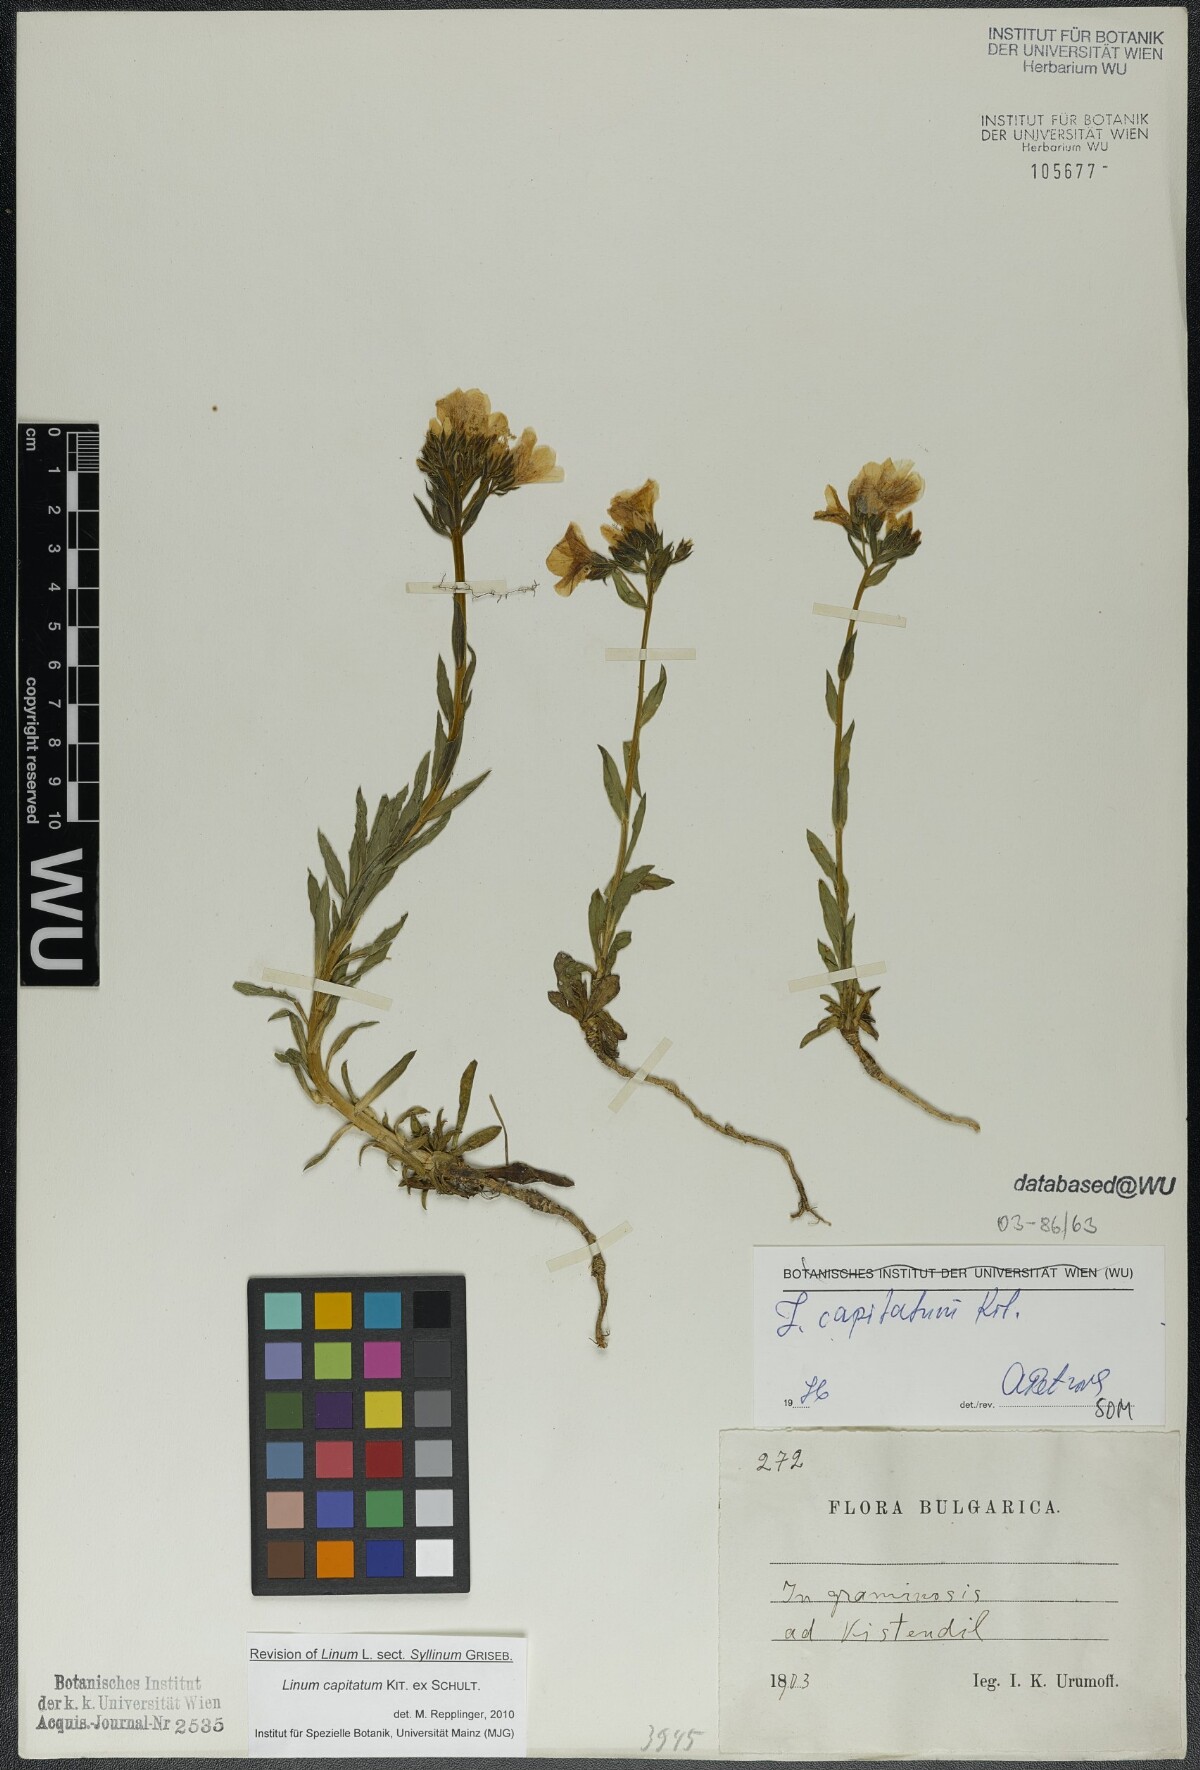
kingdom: Plantae
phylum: Tracheophyta
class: Magnoliopsida
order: Malpighiales
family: Linaceae
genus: Linum
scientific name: Linum capitatum
